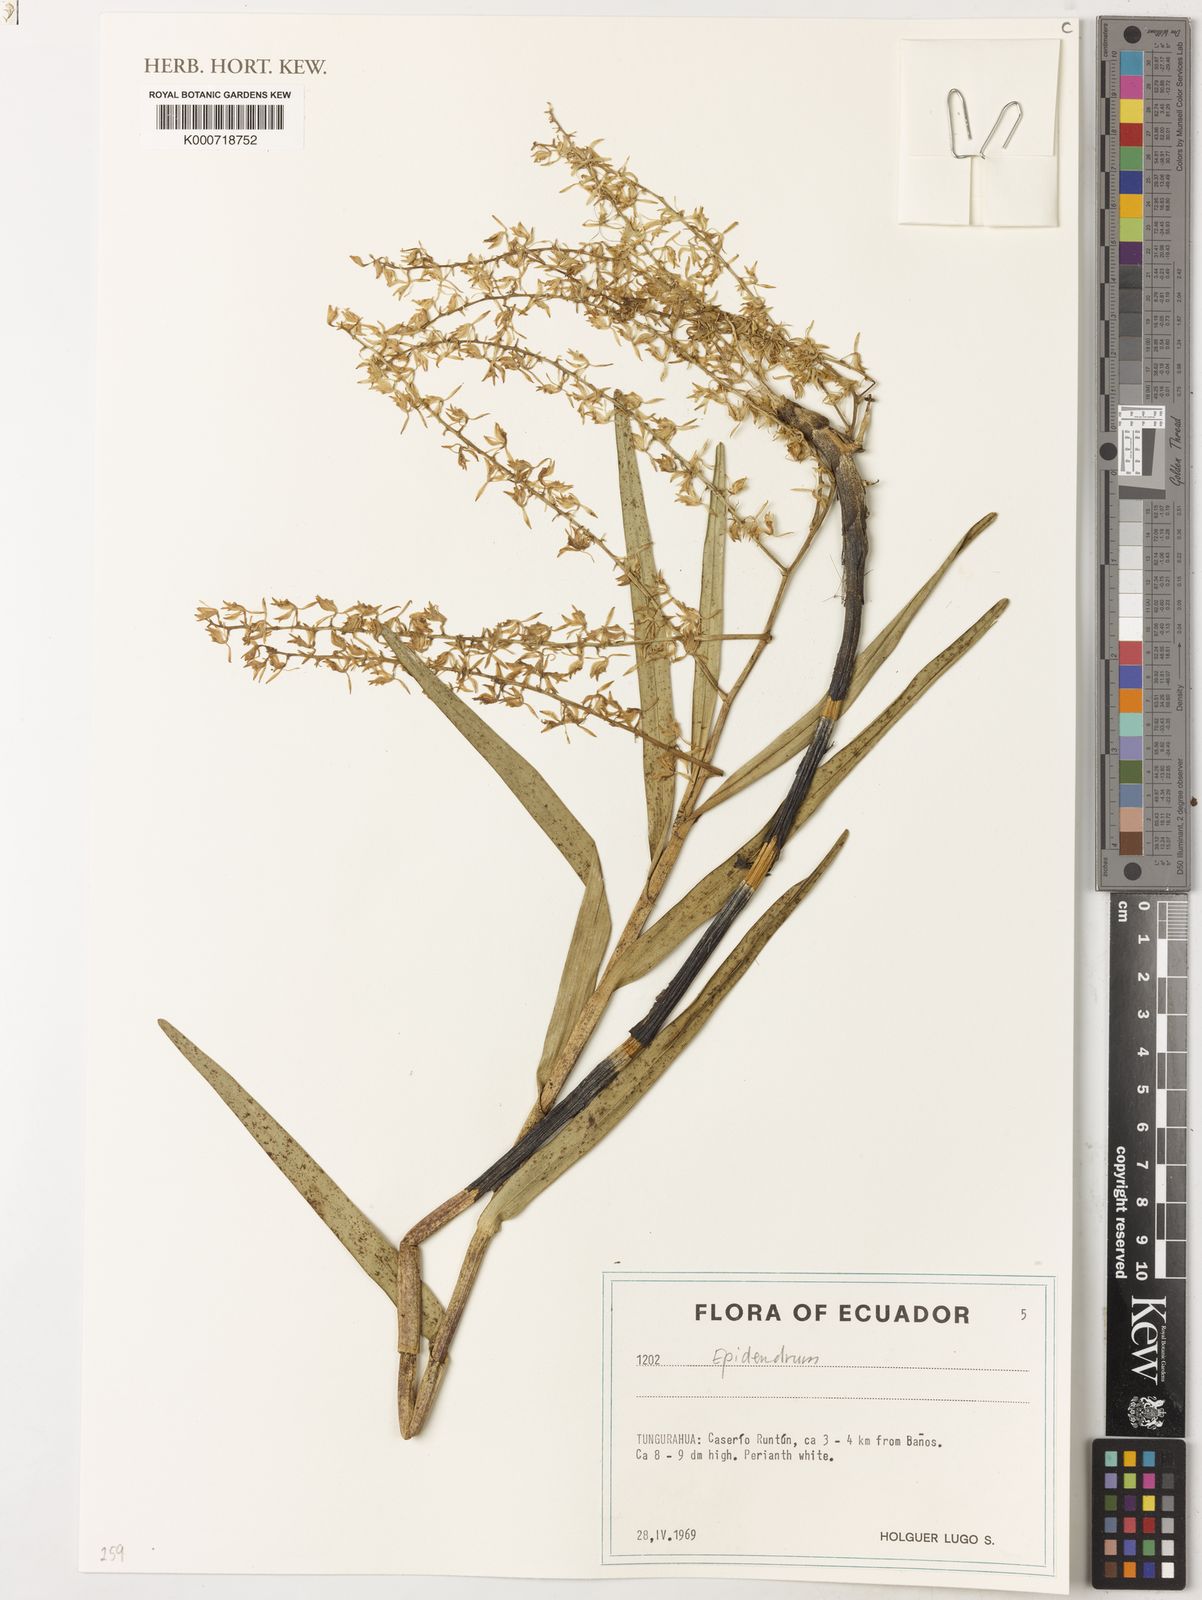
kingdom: Plantae
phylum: Tracheophyta
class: Liliopsida
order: Asparagales
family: Orchidaceae
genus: Epidendrum
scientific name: Epidendrum
